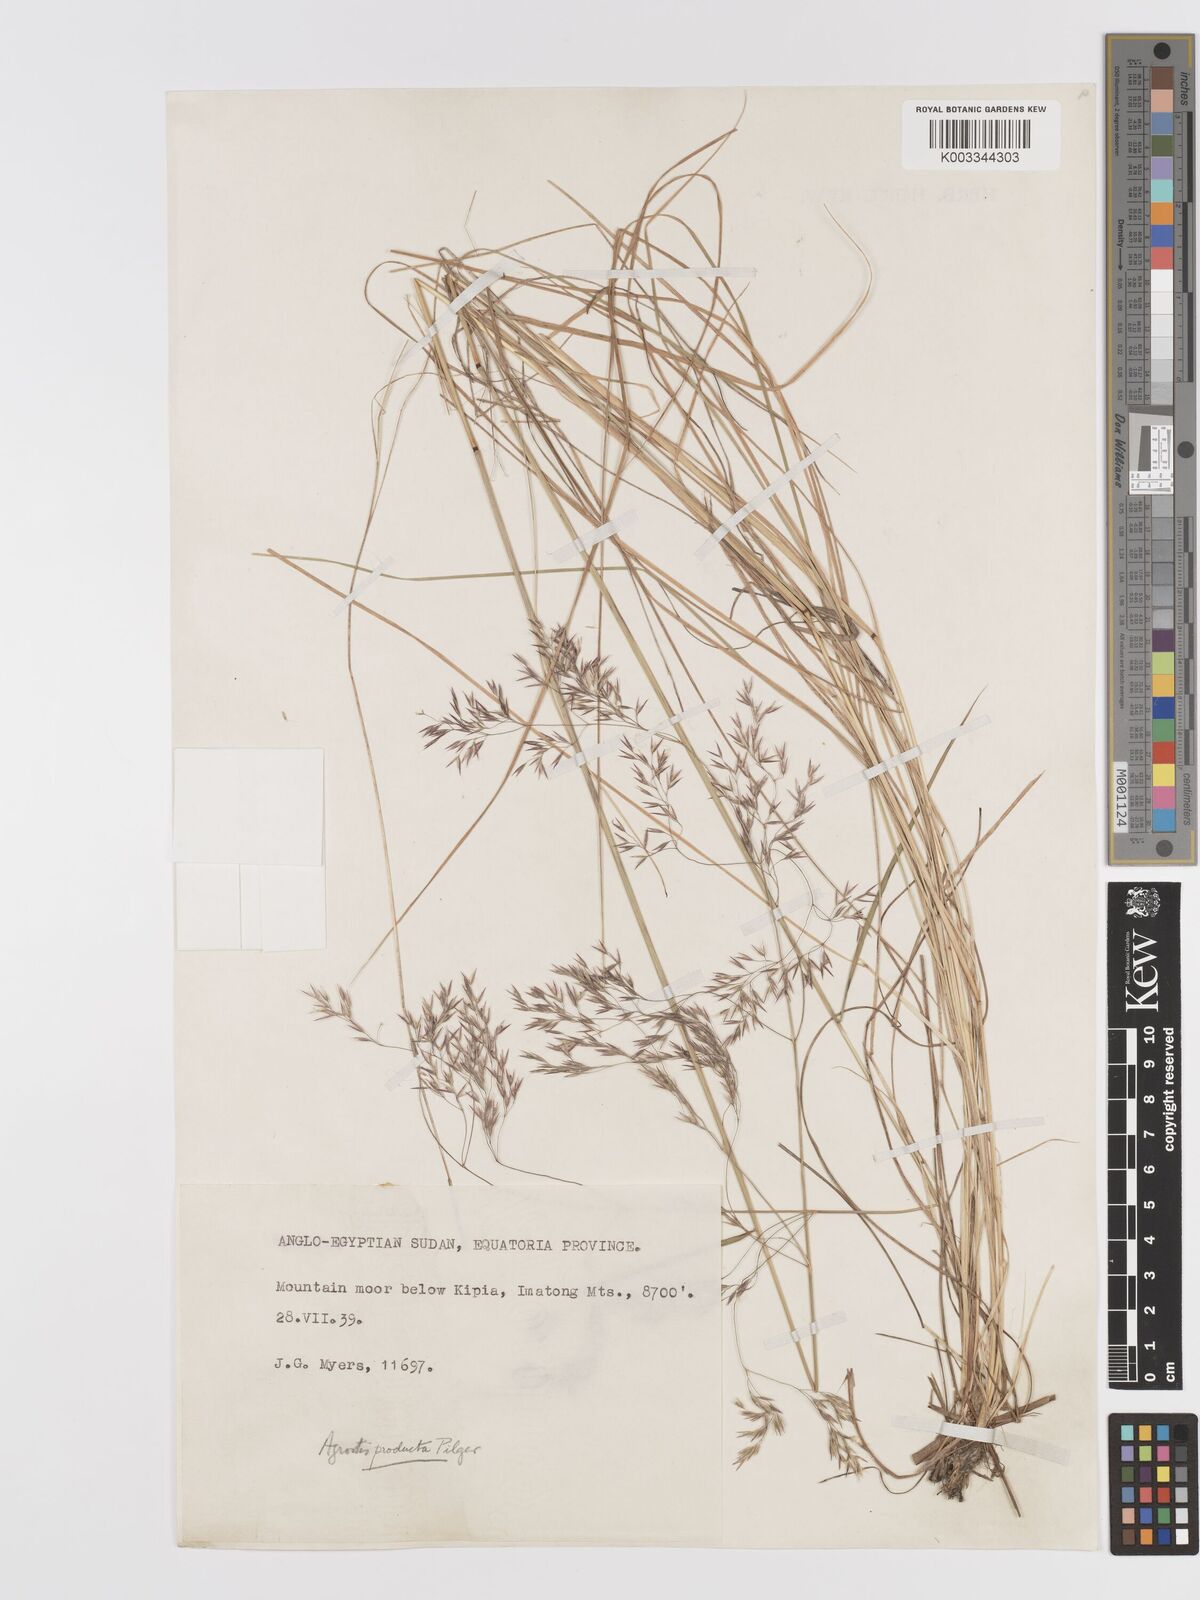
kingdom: Plantae
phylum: Tracheophyta
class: Liliopsida
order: Poales
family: Poaceae
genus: Agrostis
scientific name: Agrostis producta
